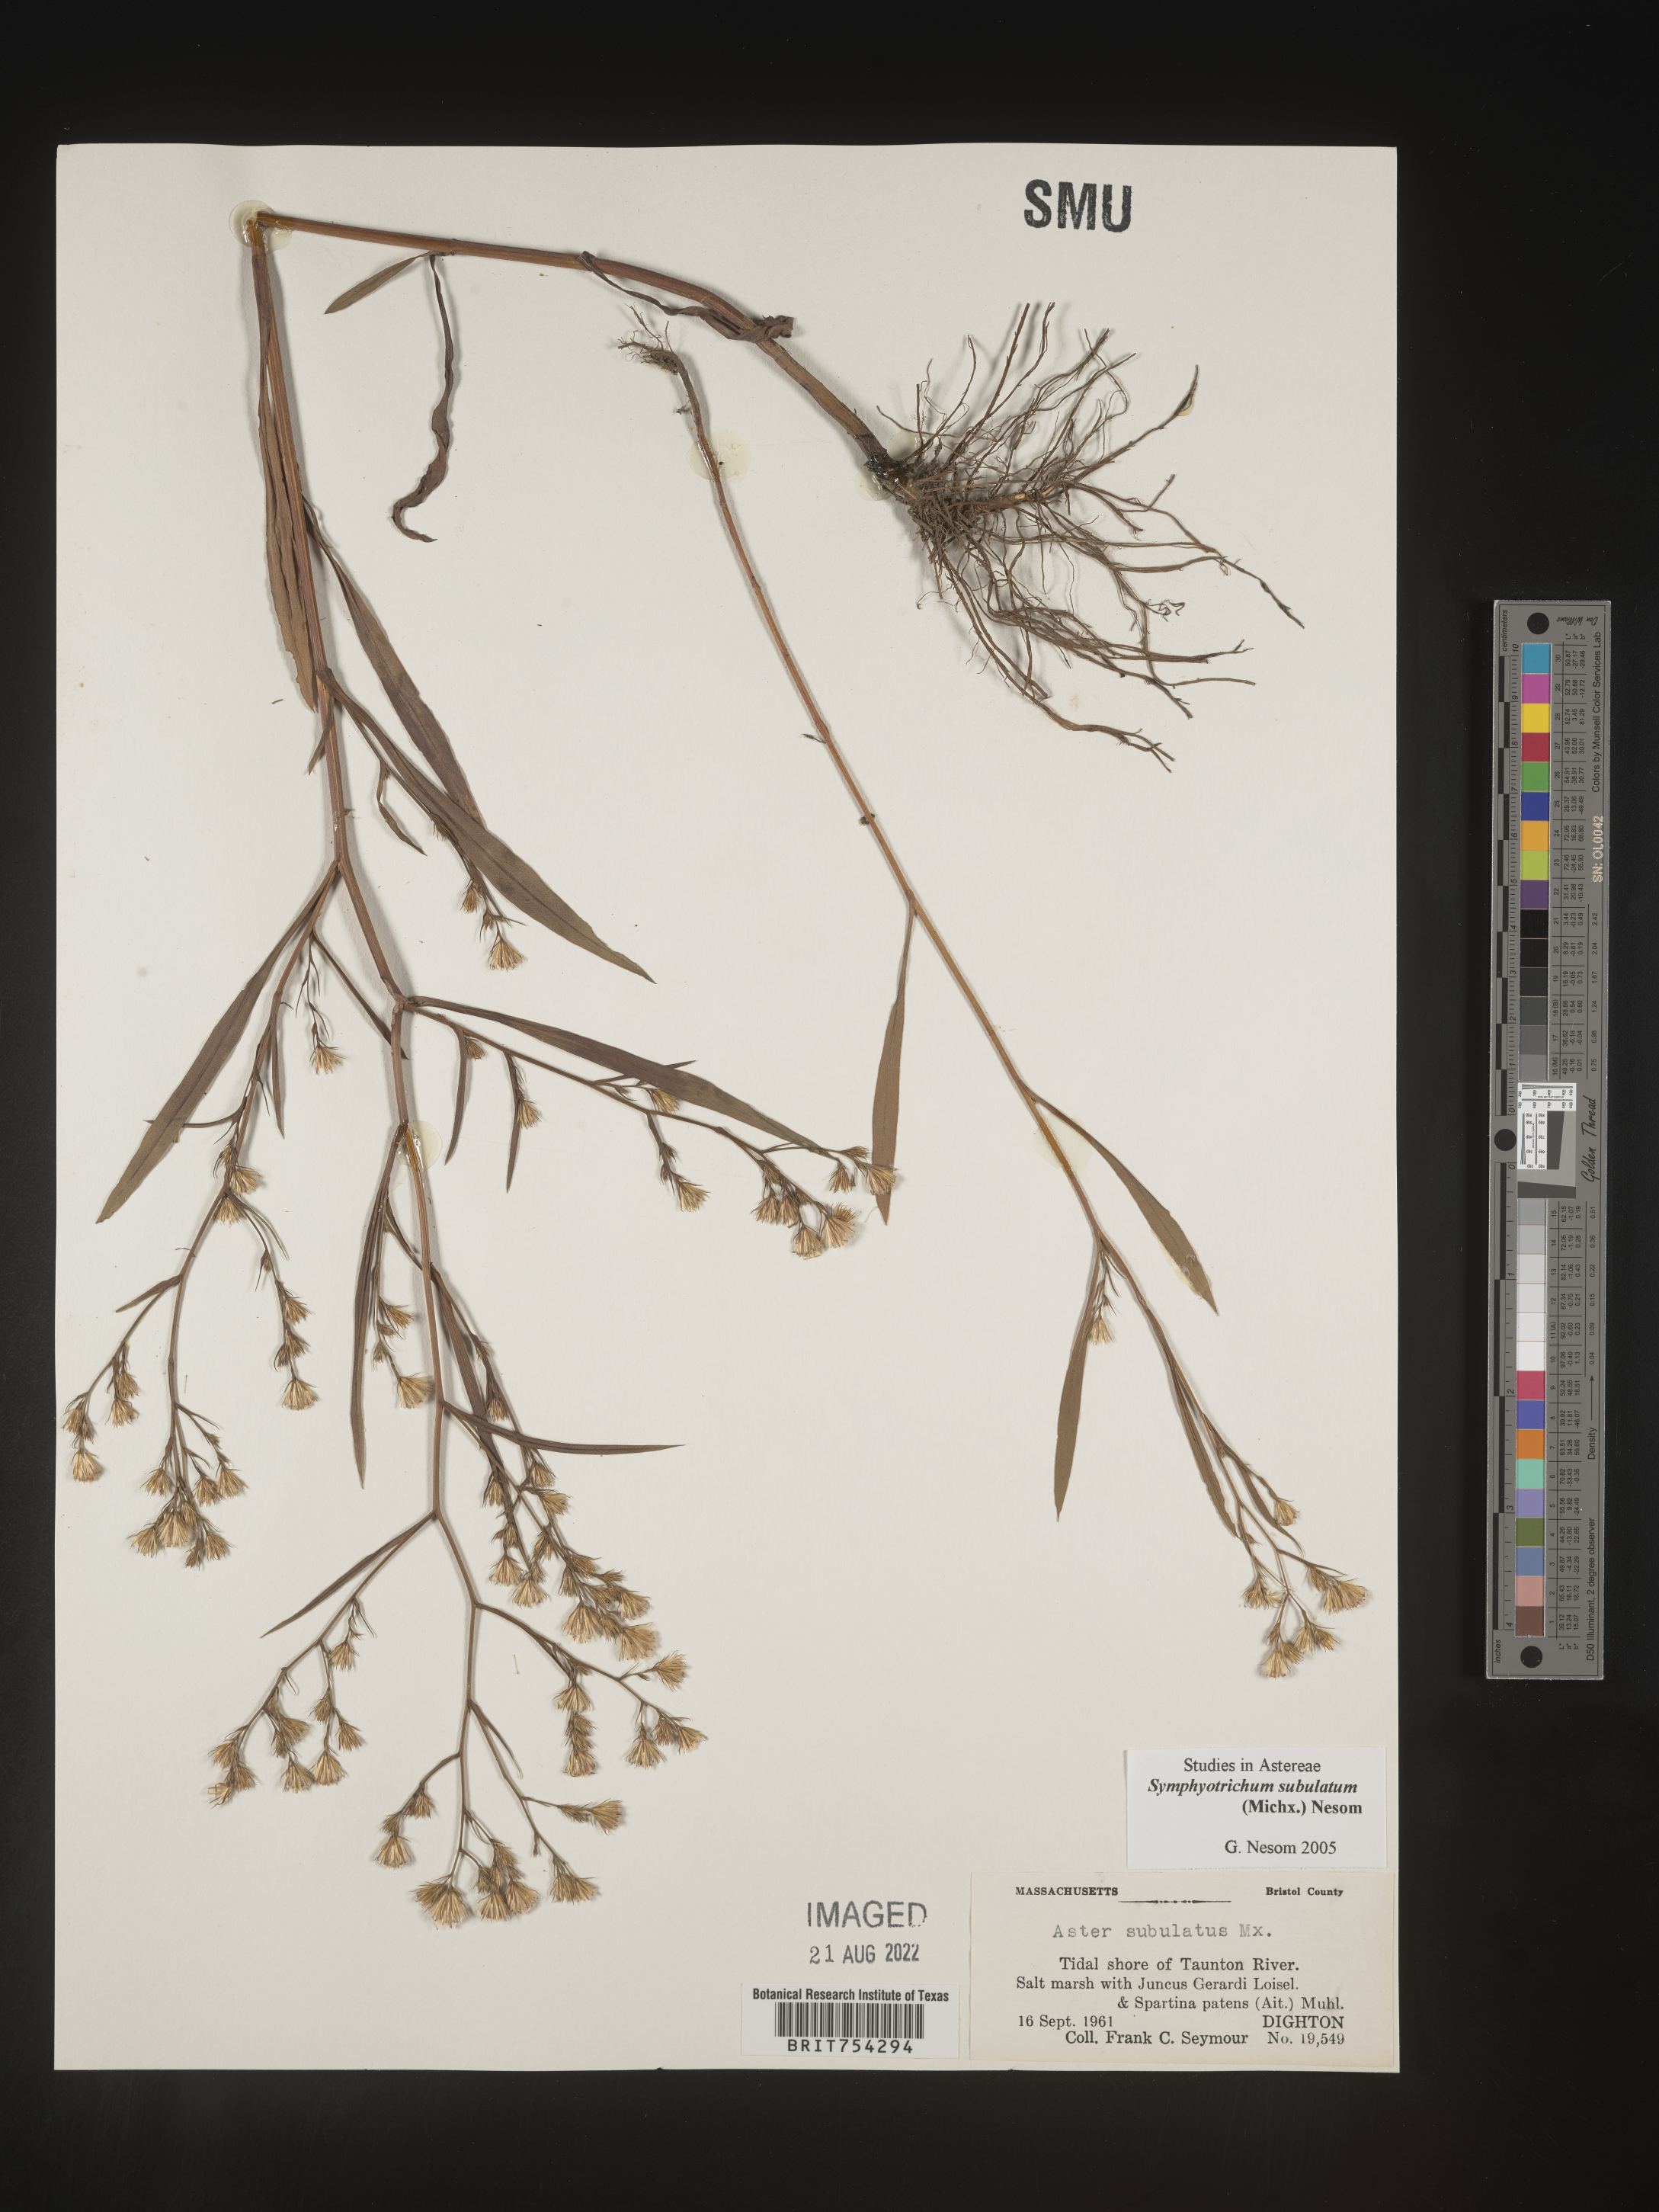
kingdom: Plantae
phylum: Tracheophyta
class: Magnoliopsida
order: Asterales
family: Asteraceae
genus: Symphyotrichum
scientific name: Symphyotrichum subulatum
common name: Annual saltmarsh aster
